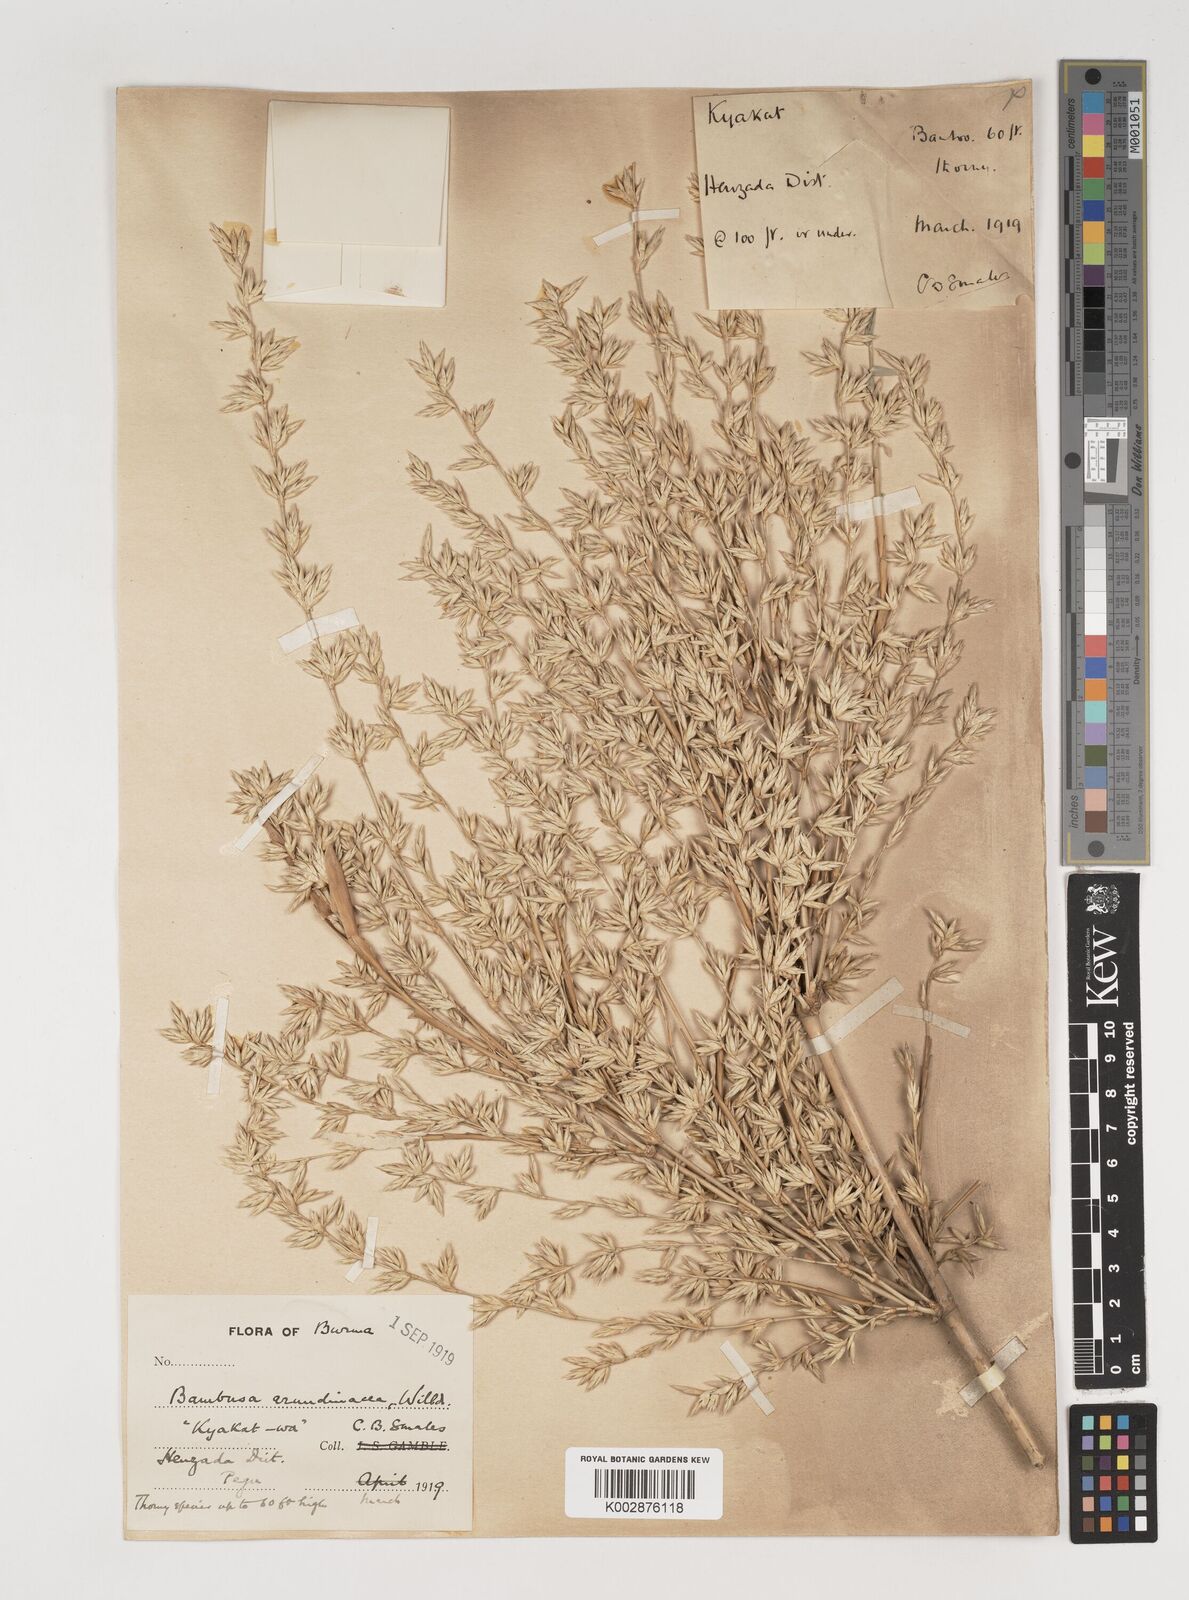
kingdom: Plantae
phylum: Tracheophyta
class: Liliopsida
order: Poales
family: Poaceae
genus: Bambusa
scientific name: Bambusa bambos
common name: Indian thorny bamboo
